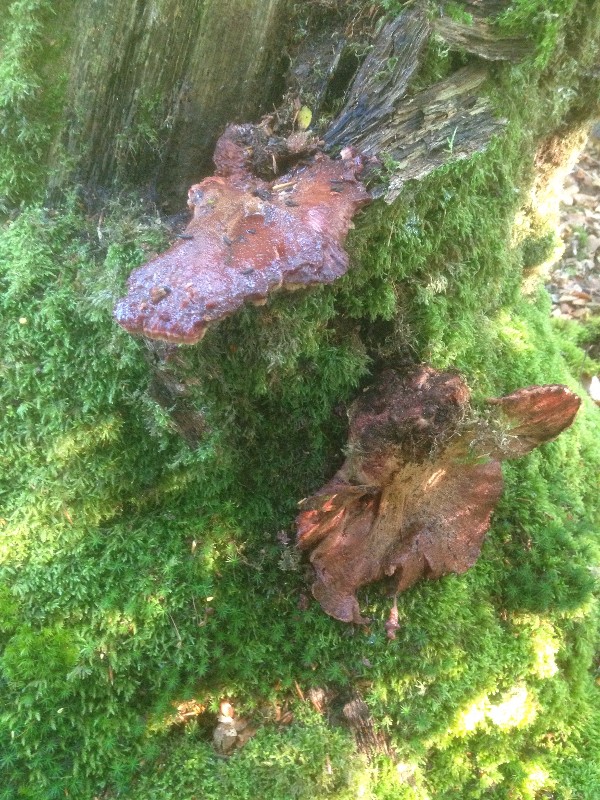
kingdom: Fungi
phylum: Basidiomycota
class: Agaricomycetes
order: Agaricales
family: Fistulinaceae
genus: Fistulina
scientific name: Fistulina hepatica
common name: oksetunge
